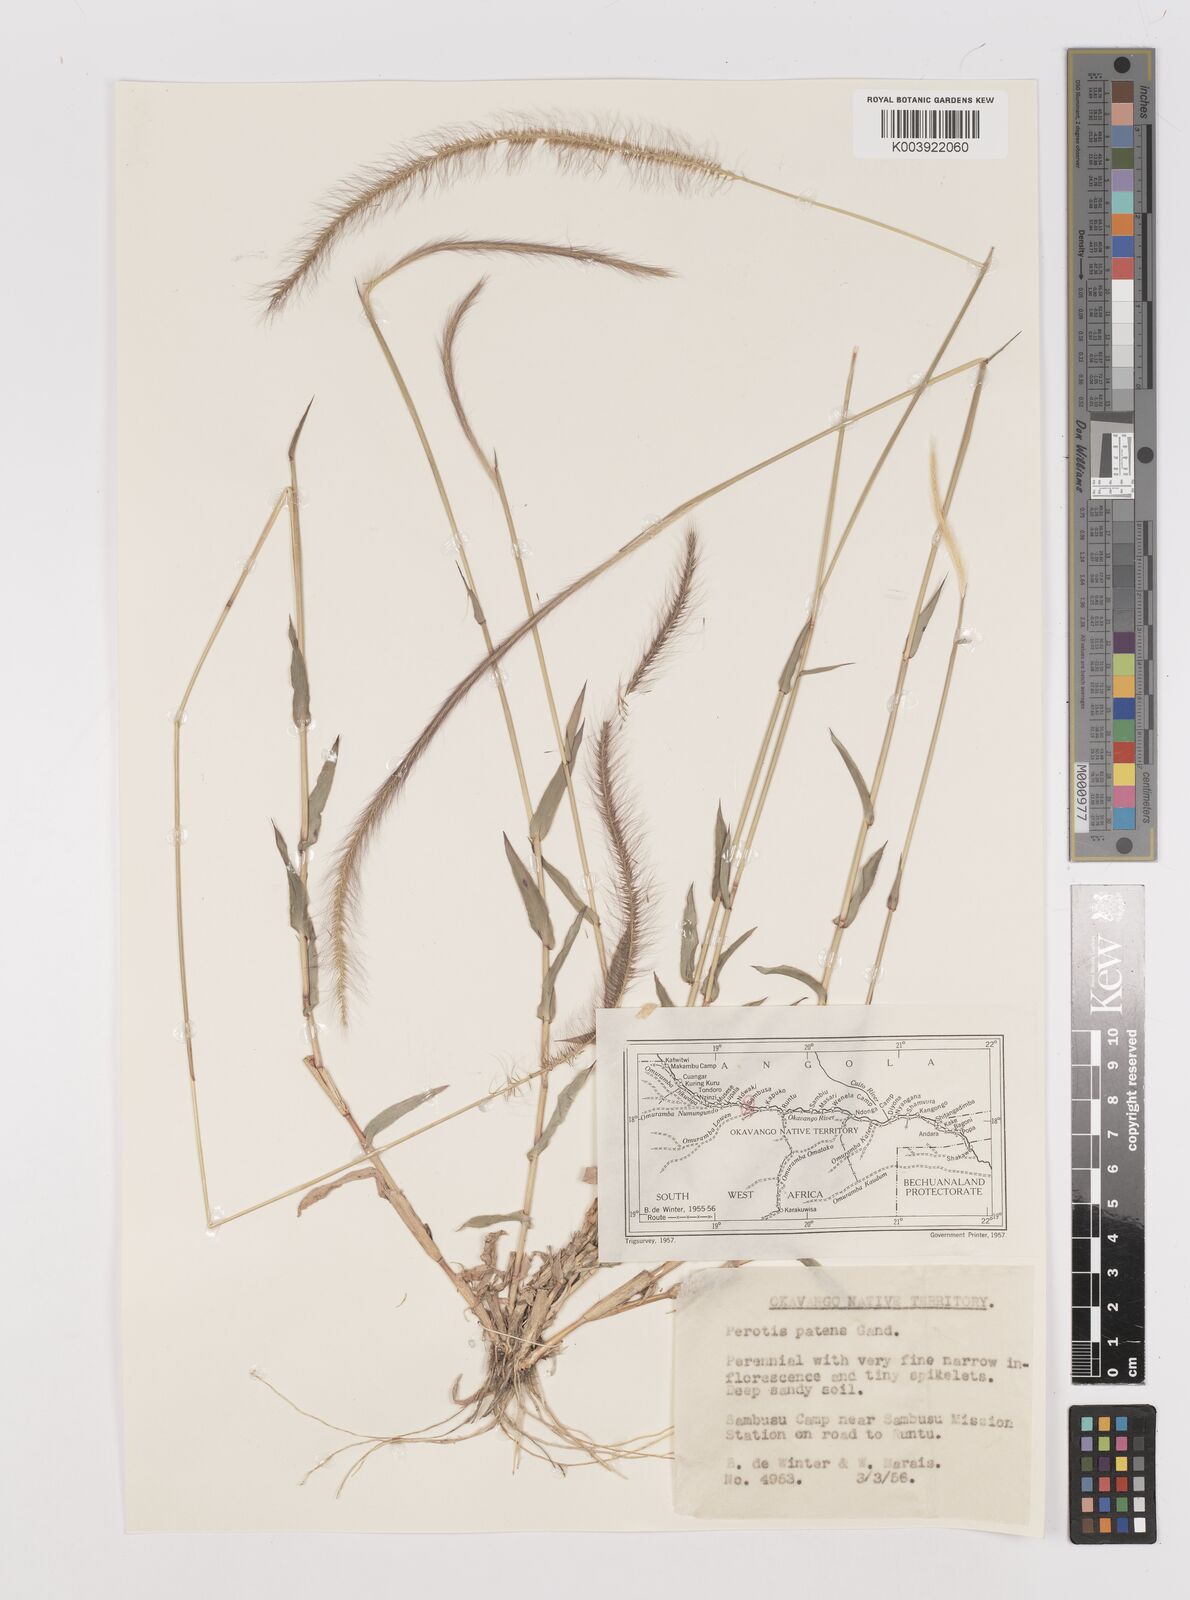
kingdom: Plantae
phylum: Tracheophyta
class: Liliopsida
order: Poales
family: Poaceae
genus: Perotis
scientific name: Perotis patens
